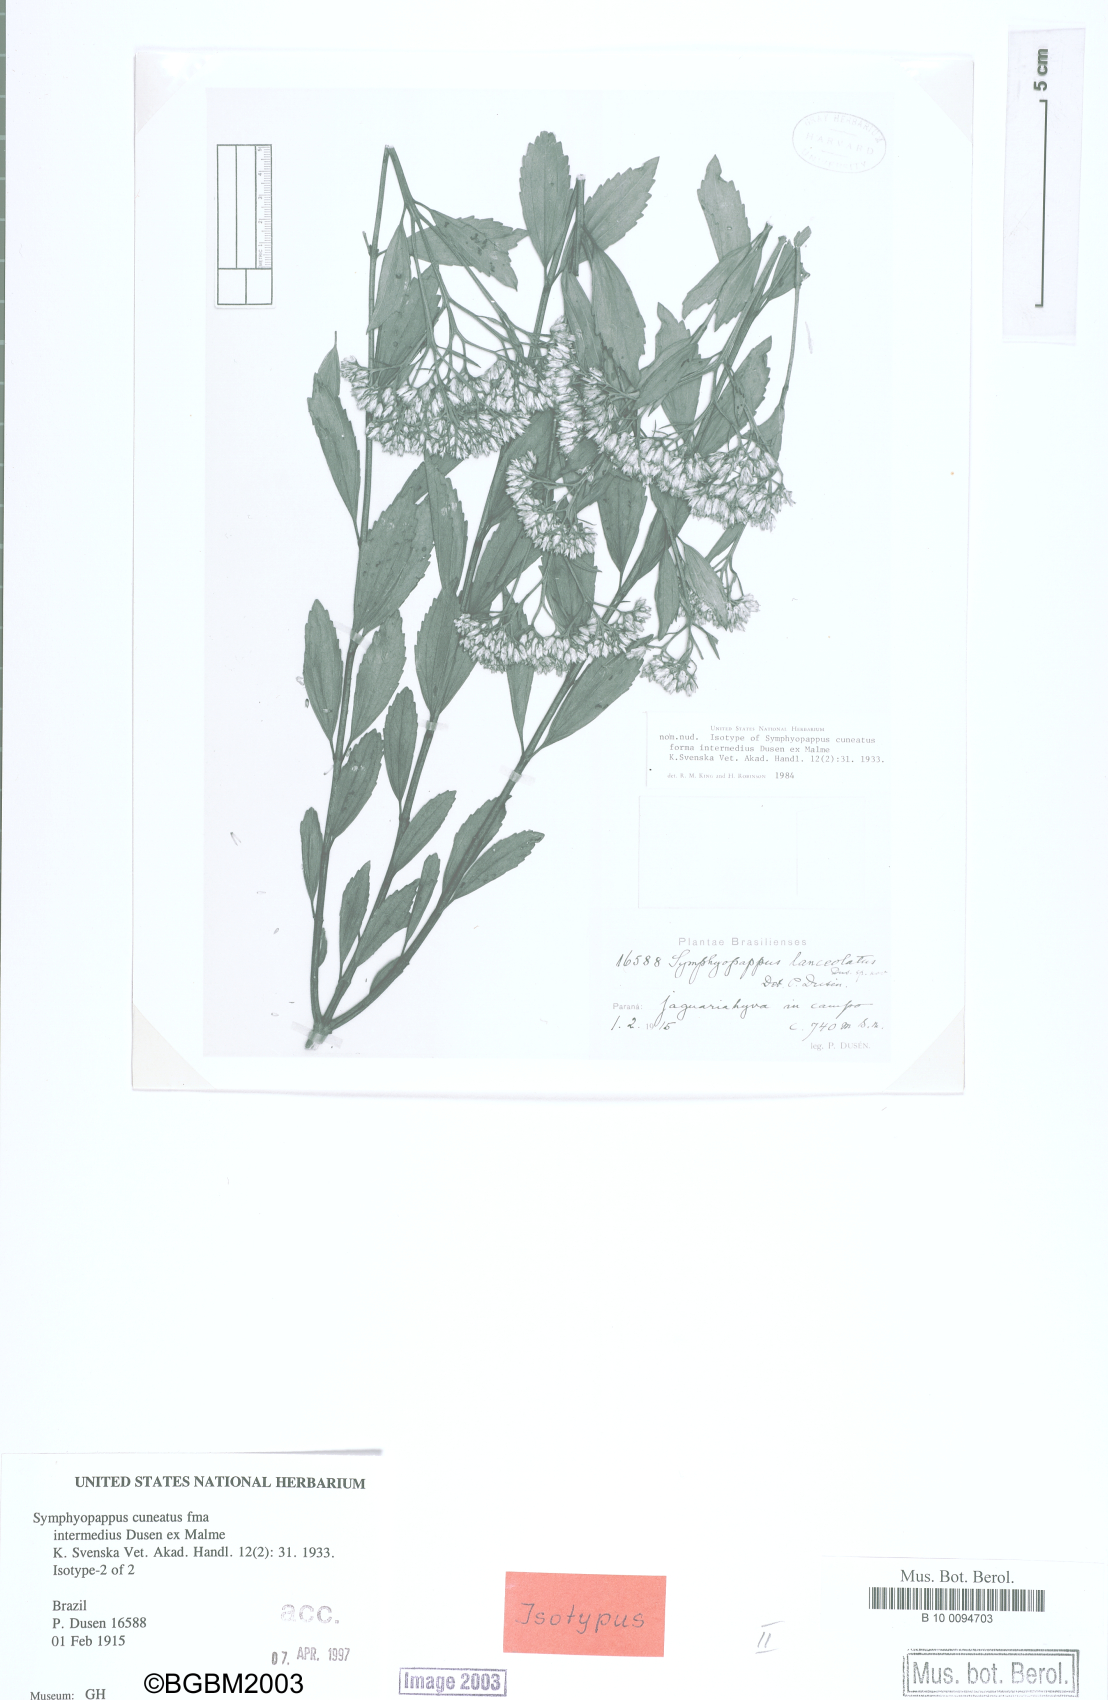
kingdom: Plantae
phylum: Tracheophyta
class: Magnoliopsida
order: Asterales
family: Asteraceae
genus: Symphyopappus
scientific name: Symphyopappus cuneatus
